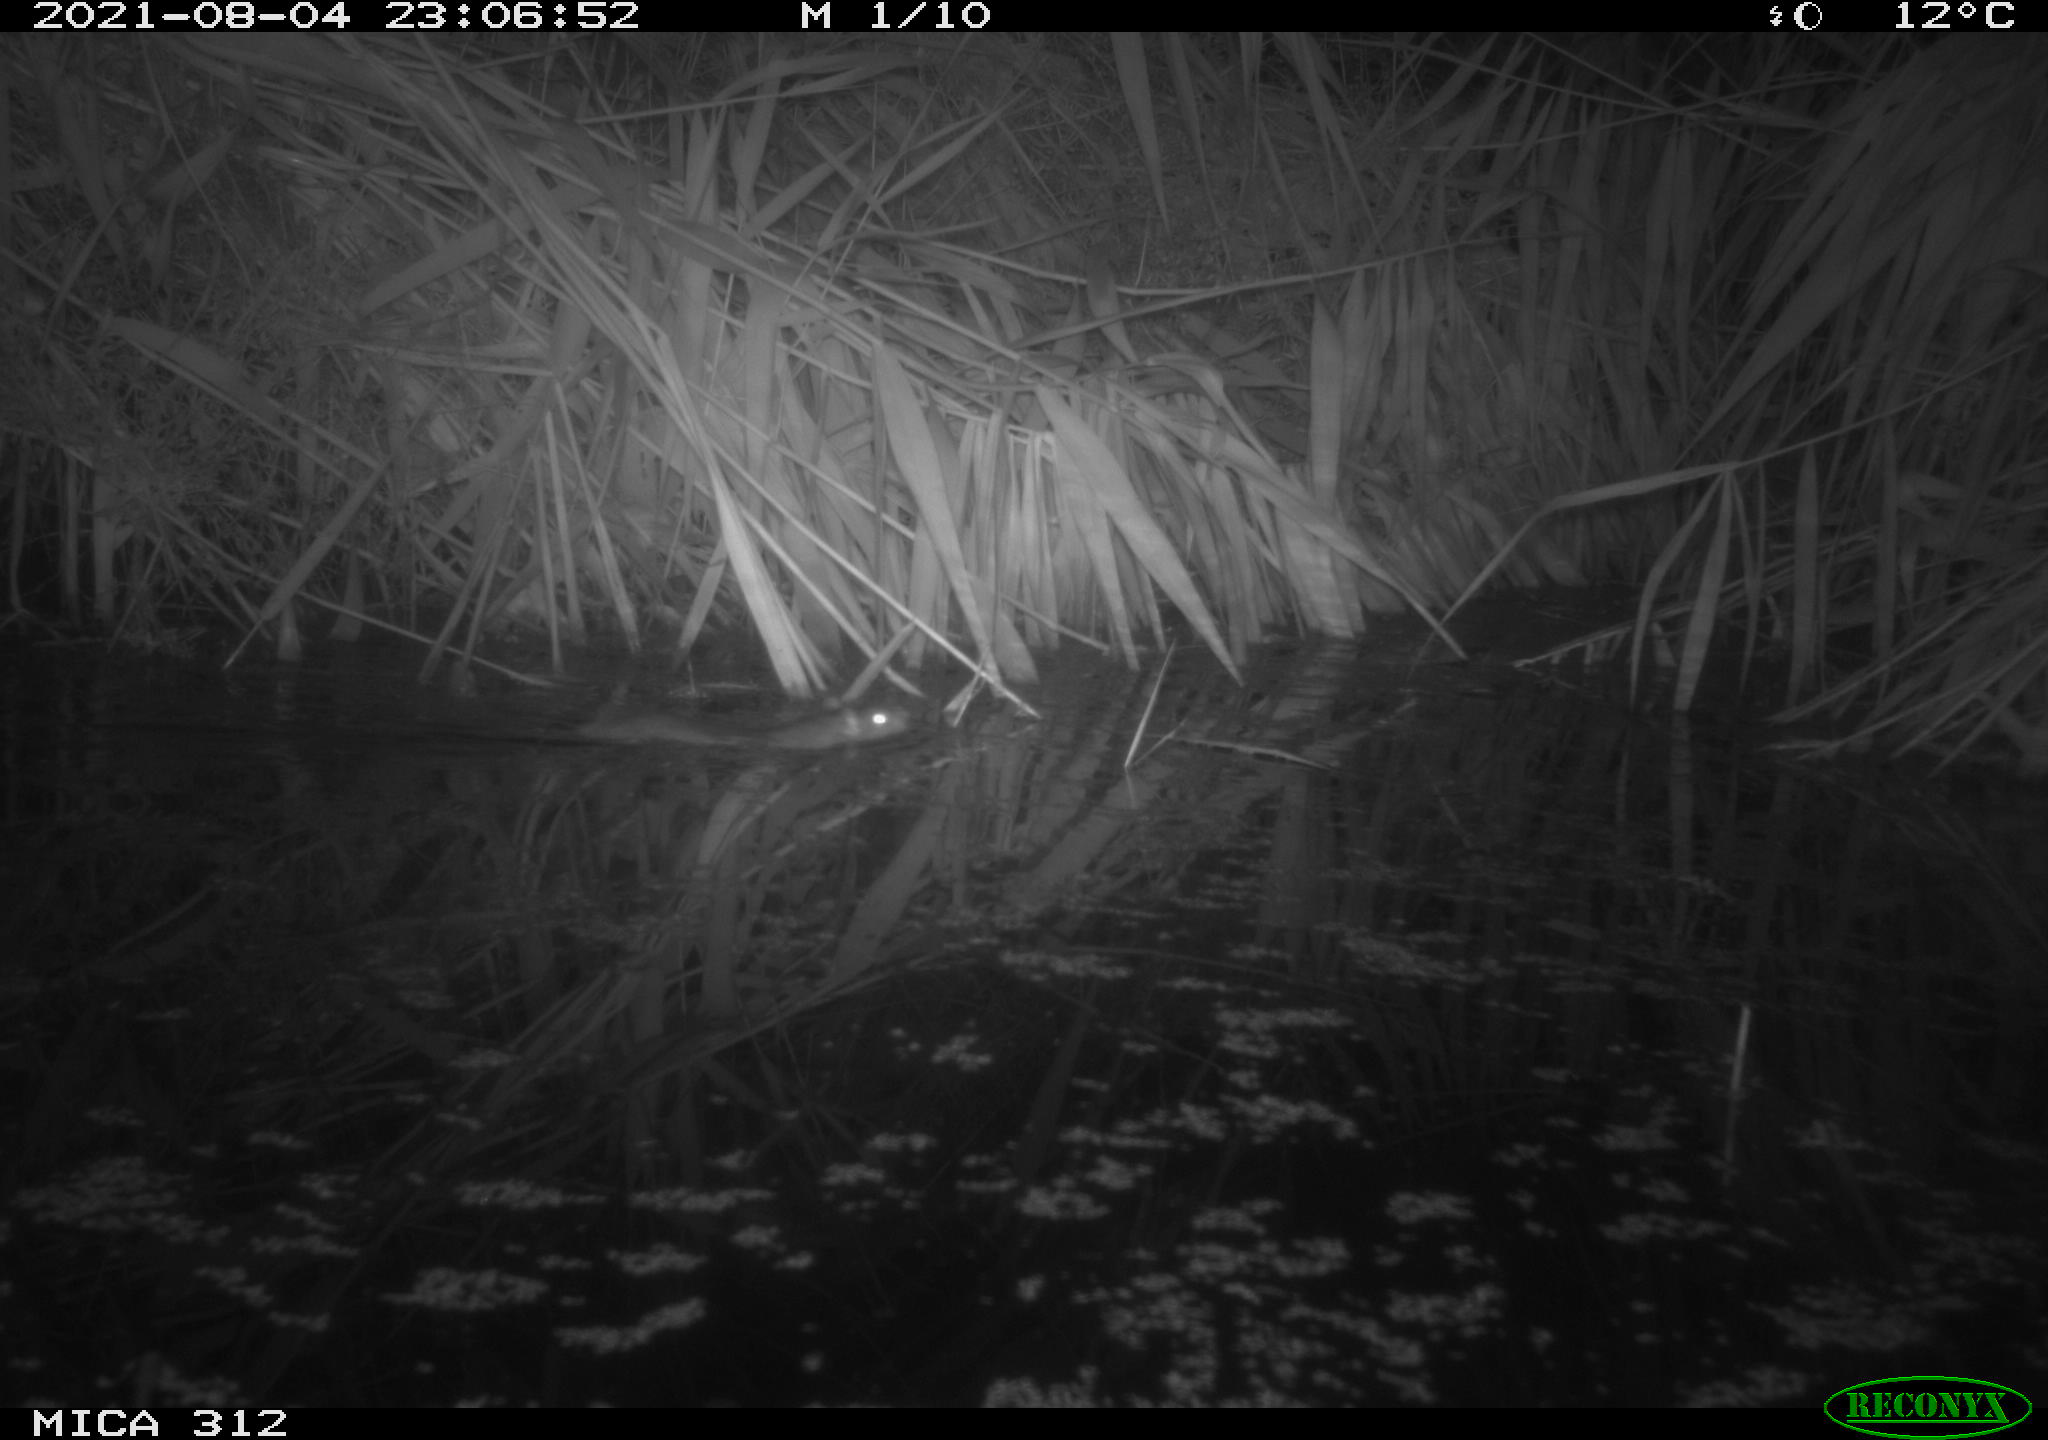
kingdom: Animalia
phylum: Chordata
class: Mammalia
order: Rodentia
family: Muridae
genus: Rattus
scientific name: Rattus norvegicus
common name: Brown rat
